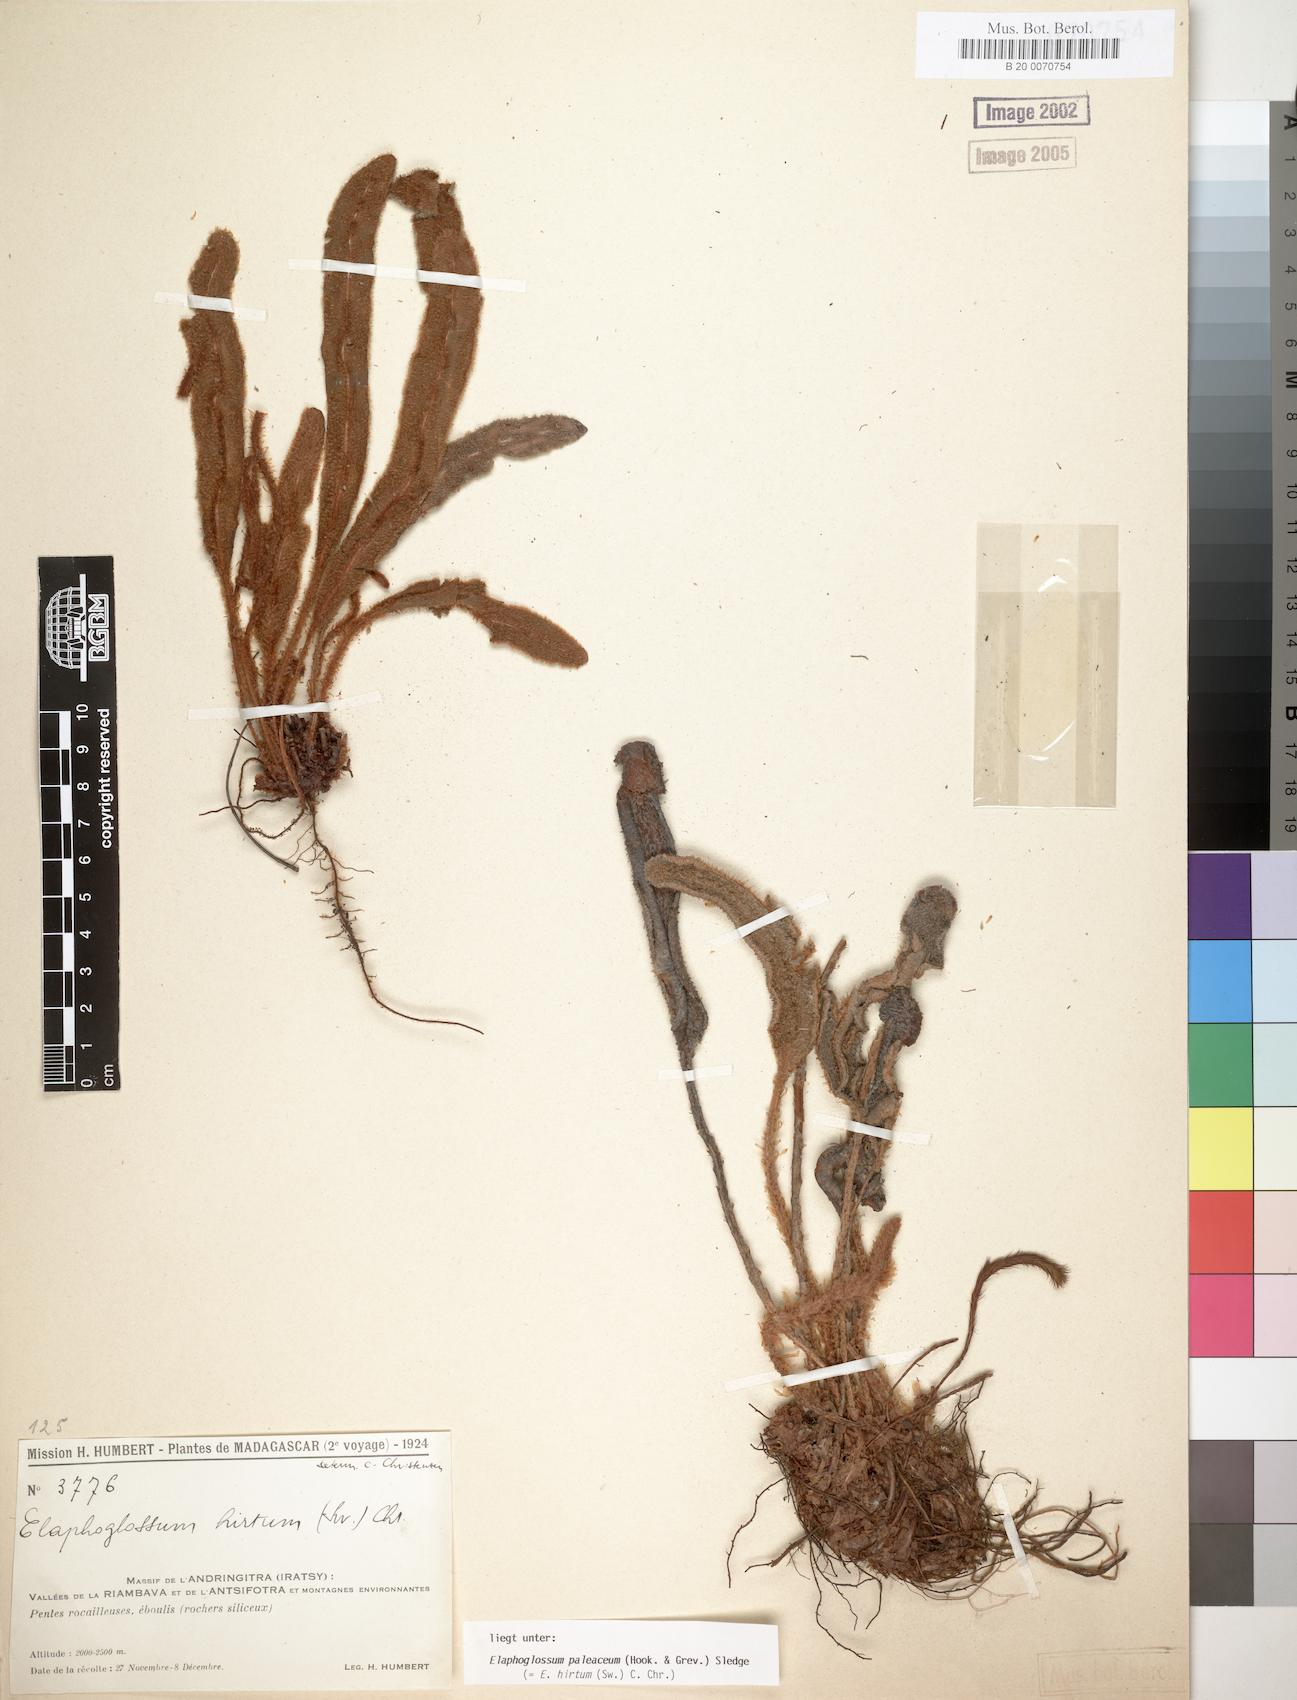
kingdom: Plantae
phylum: Tracheophyta
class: Polypodiopsida
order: Polypodiales
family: Dryopteridaceae
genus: Elaphoglossum
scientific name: Elaphoglossum paleaceum
